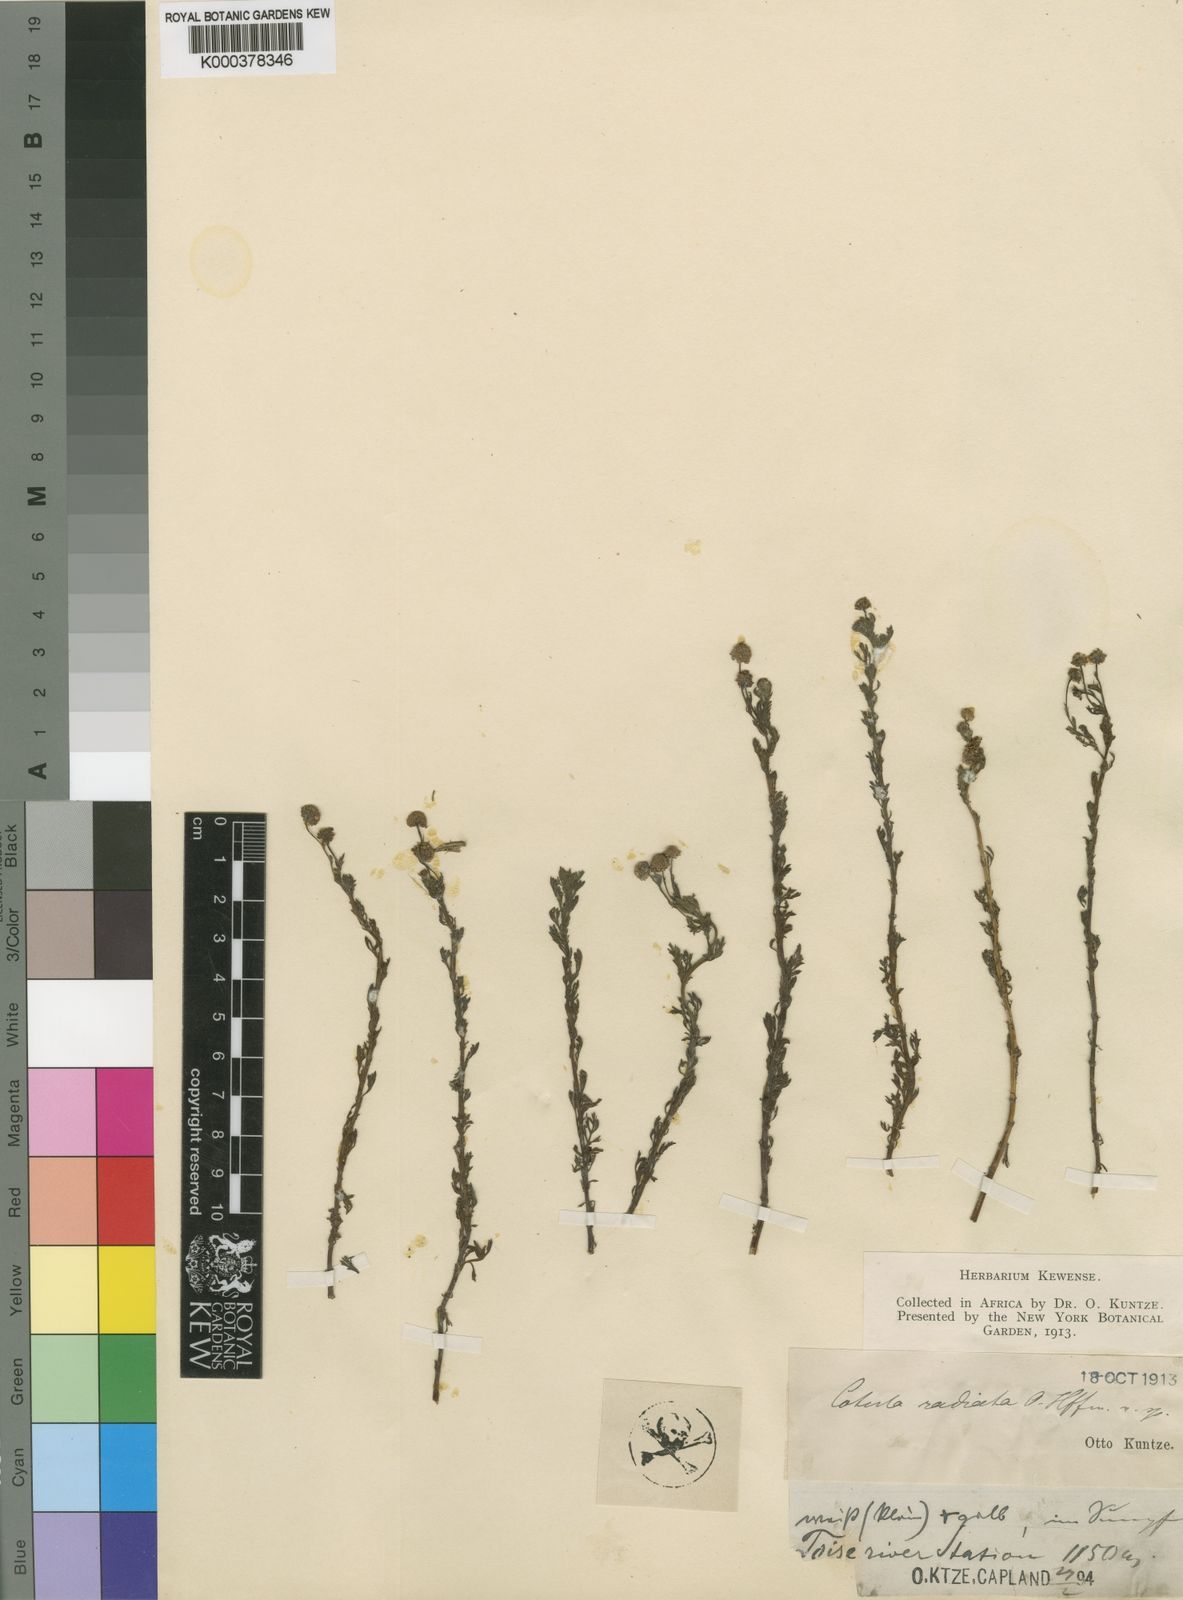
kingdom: Plantae
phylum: Tracheophyta
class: Magnoliopsida
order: Asterales
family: Asteraceae
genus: Cotula
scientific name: Cotula
